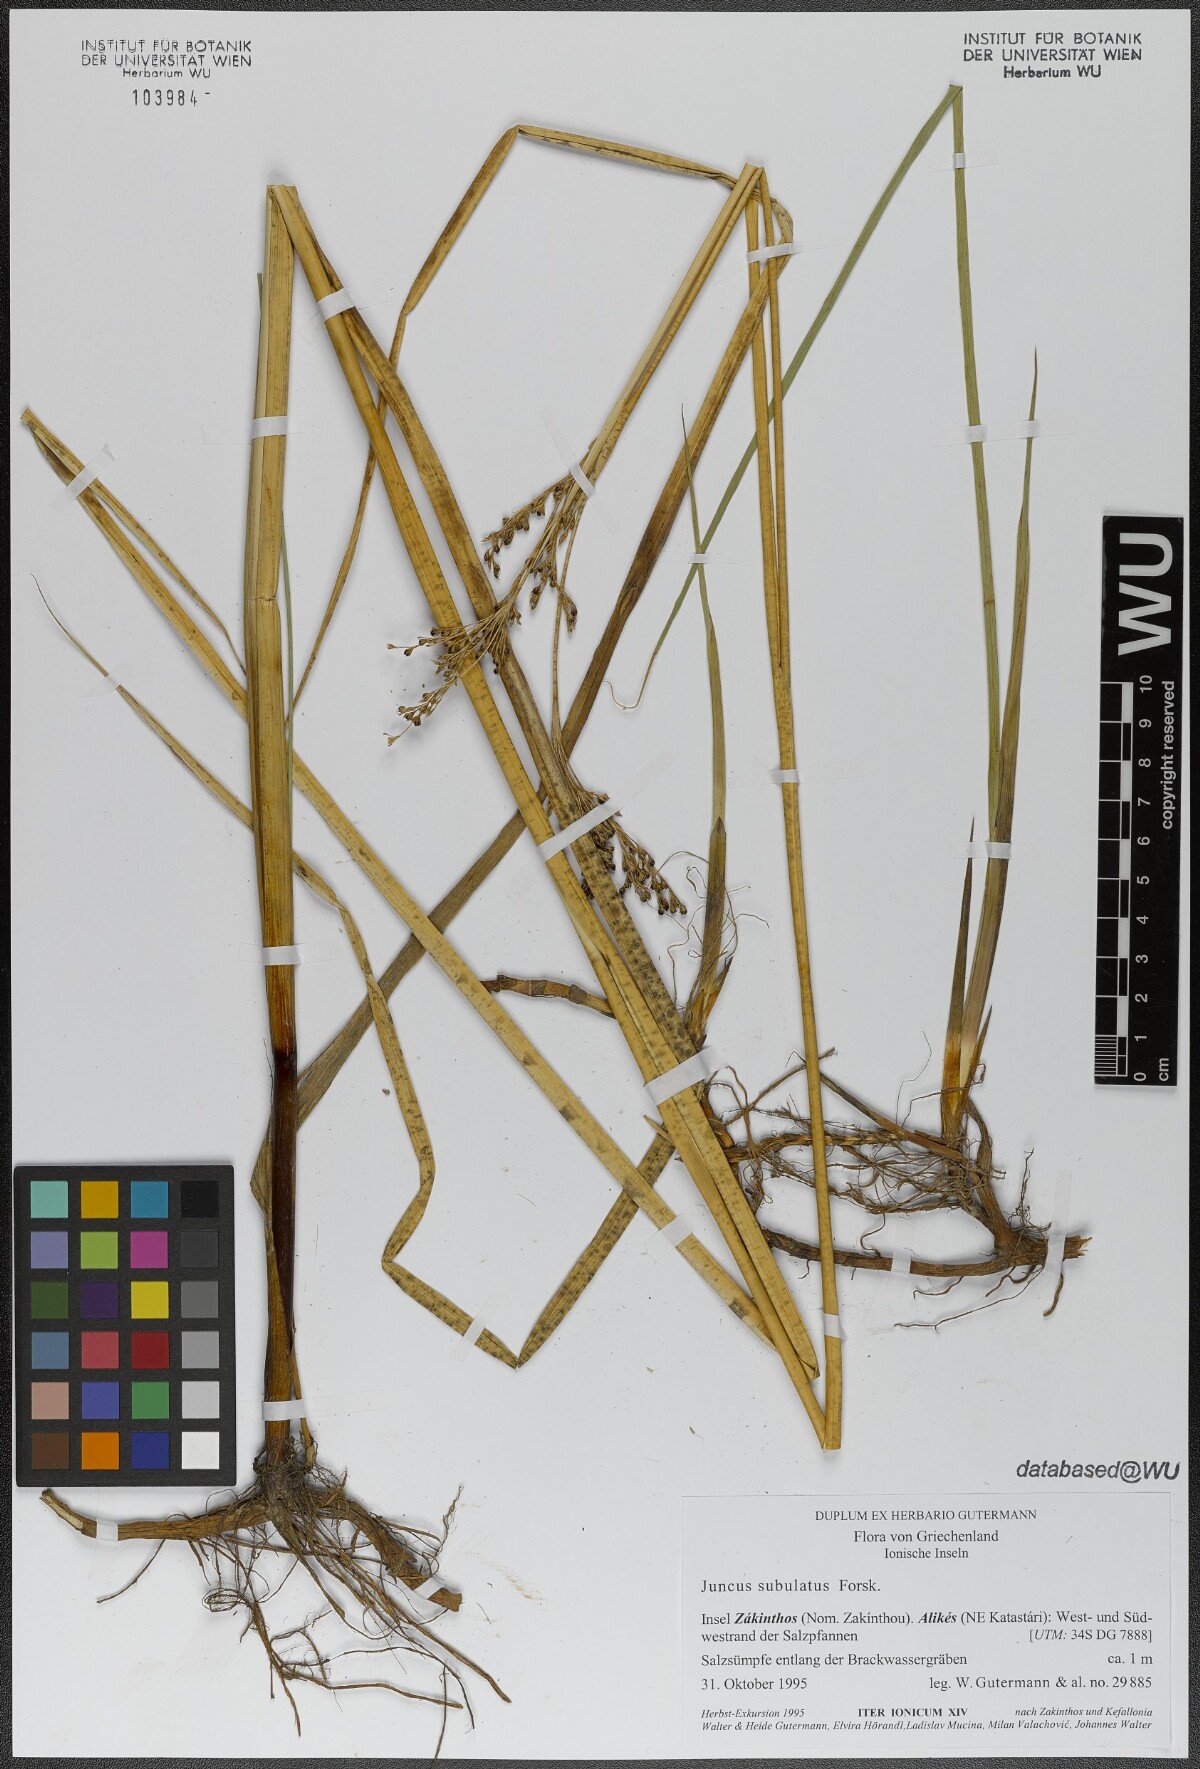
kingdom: Plantae
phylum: Tracheophyta
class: Liliopsida
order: Poales
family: Juncaceae
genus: Juncus
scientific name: Juncus subulatus
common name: Somerset rush
